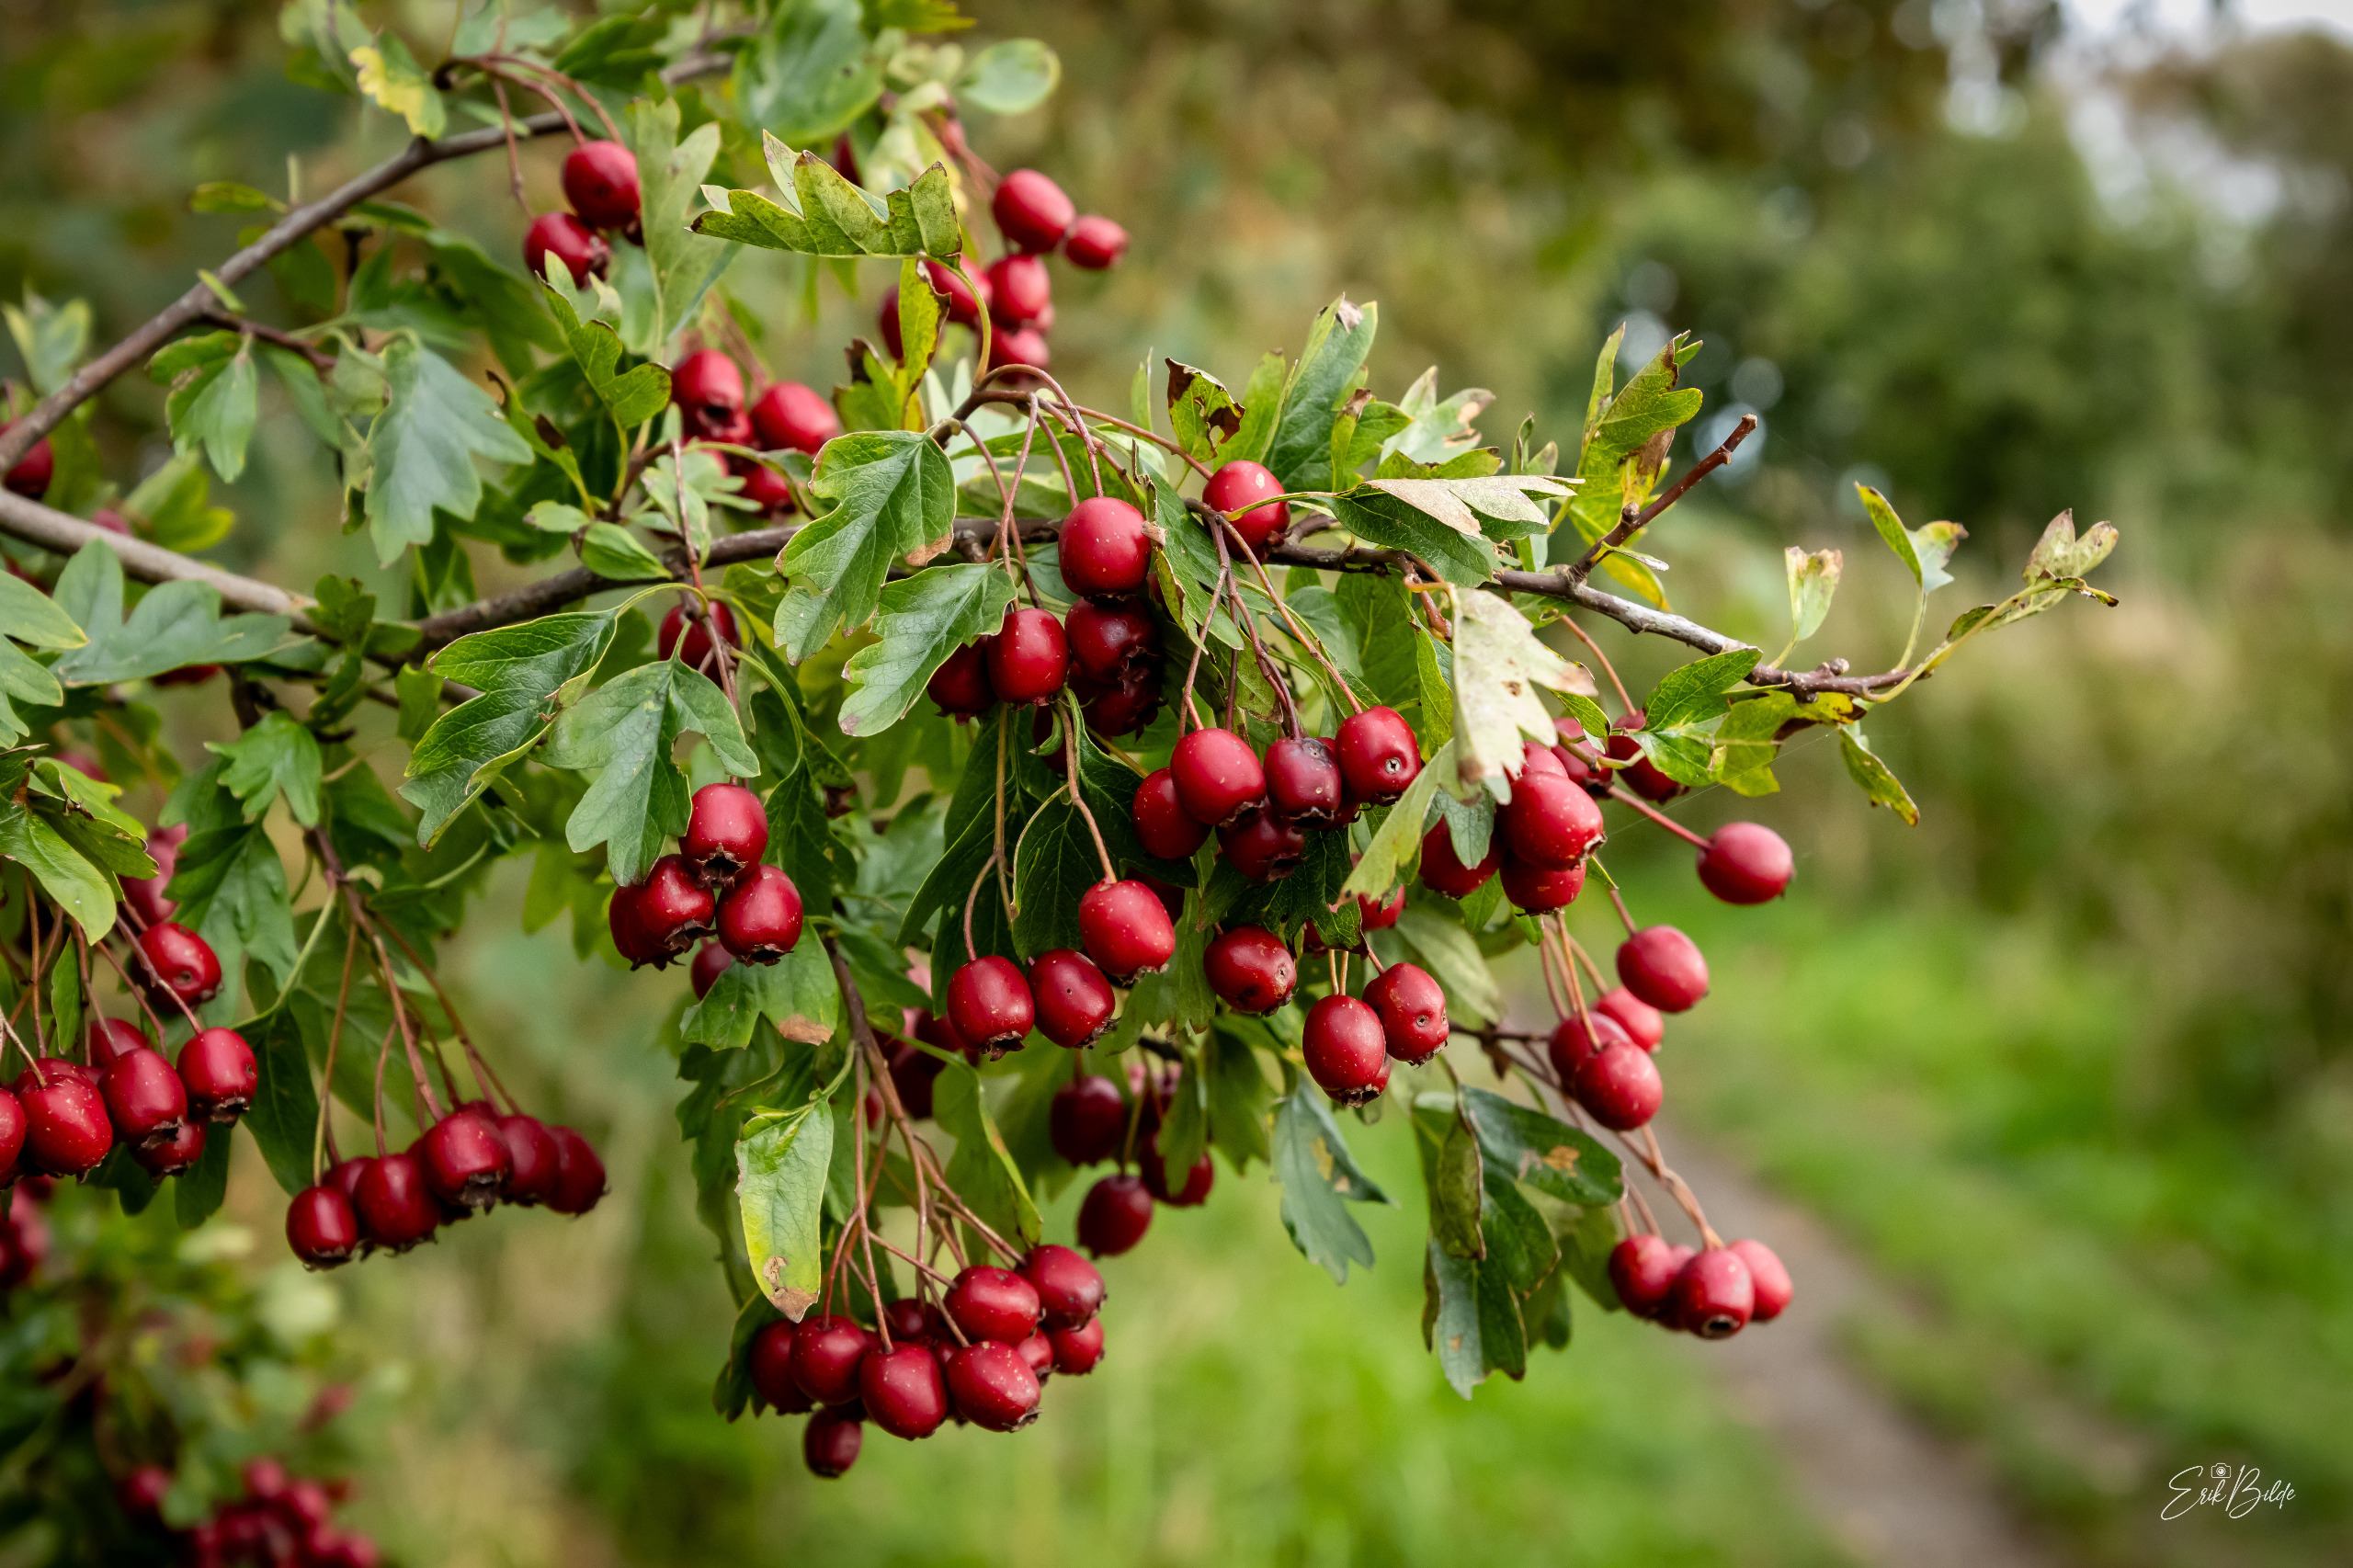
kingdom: Plantae
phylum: Tracheophyta
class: Magnoliopsida
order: Rosales
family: Rosaceae
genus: Crataegus
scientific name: Crataegus monogyna
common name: Engriflet hvidtjørn
